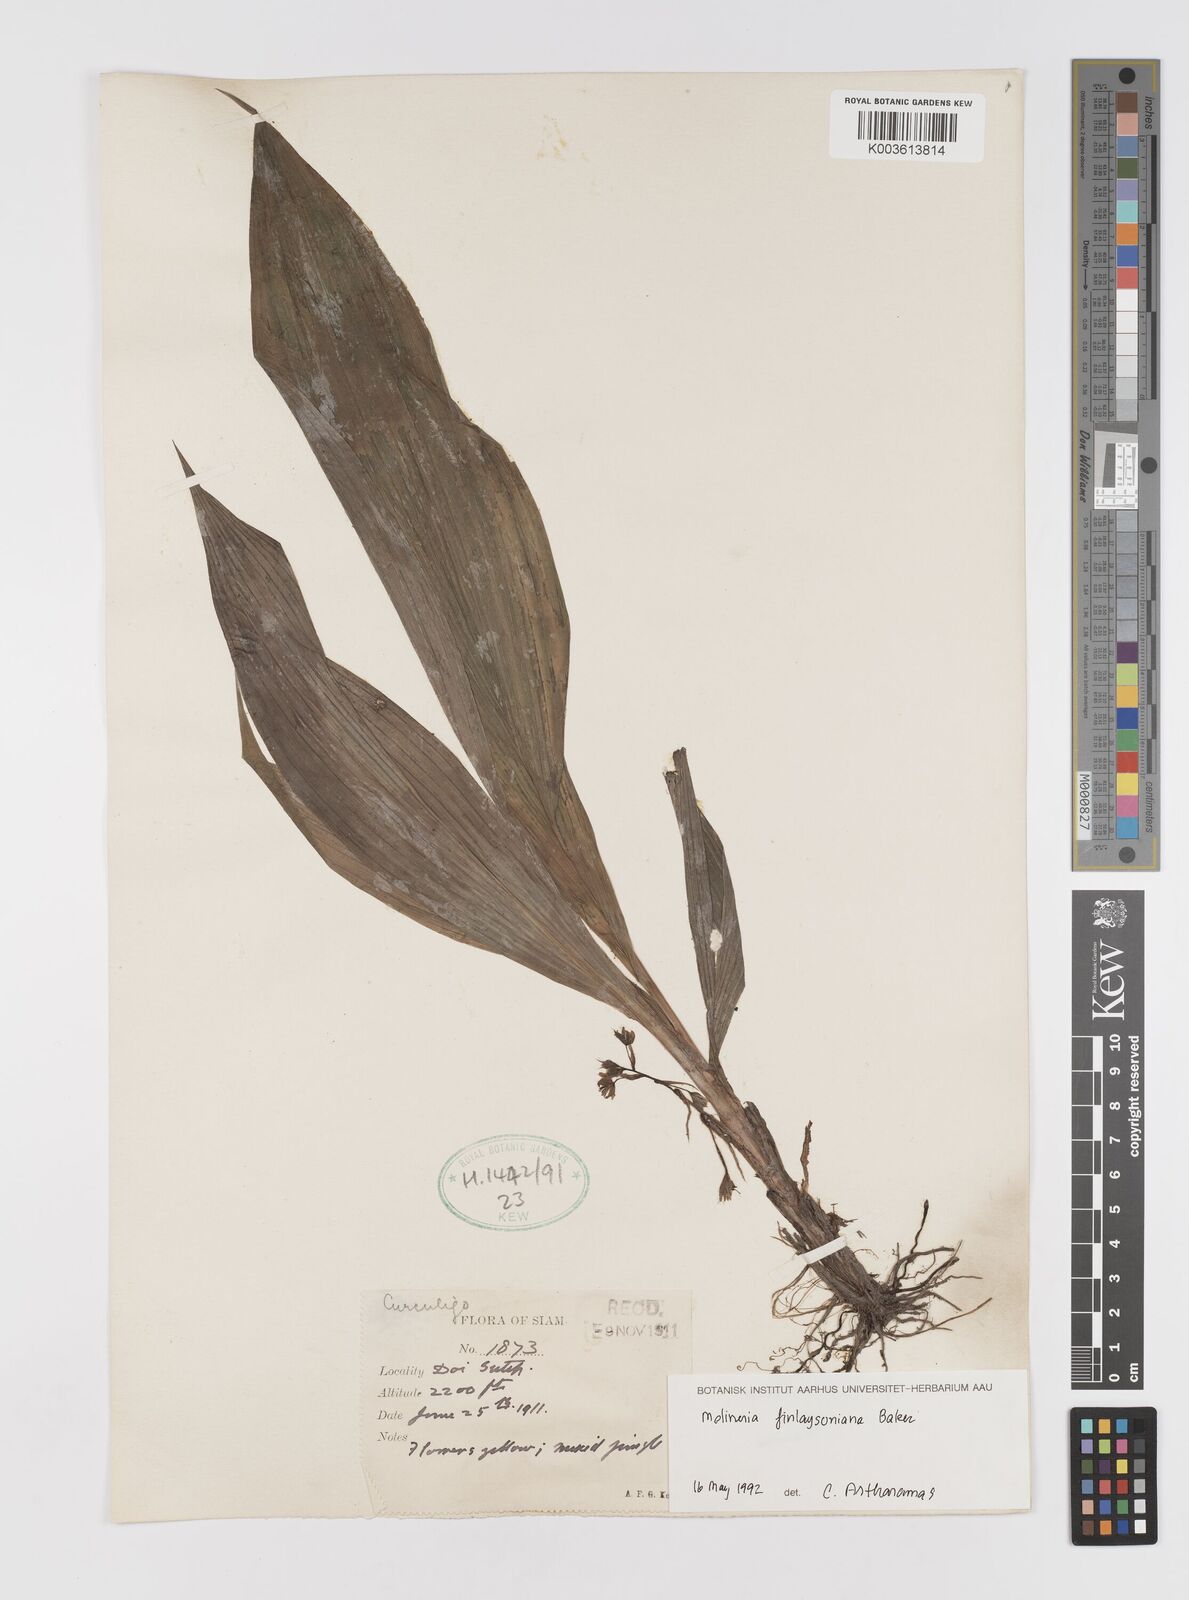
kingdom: Plantae
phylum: Tracheophyta
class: Liliopsida
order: Asparagales
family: Hypoxidaceae
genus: Curculigo
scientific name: Curculigo trichocarpa
